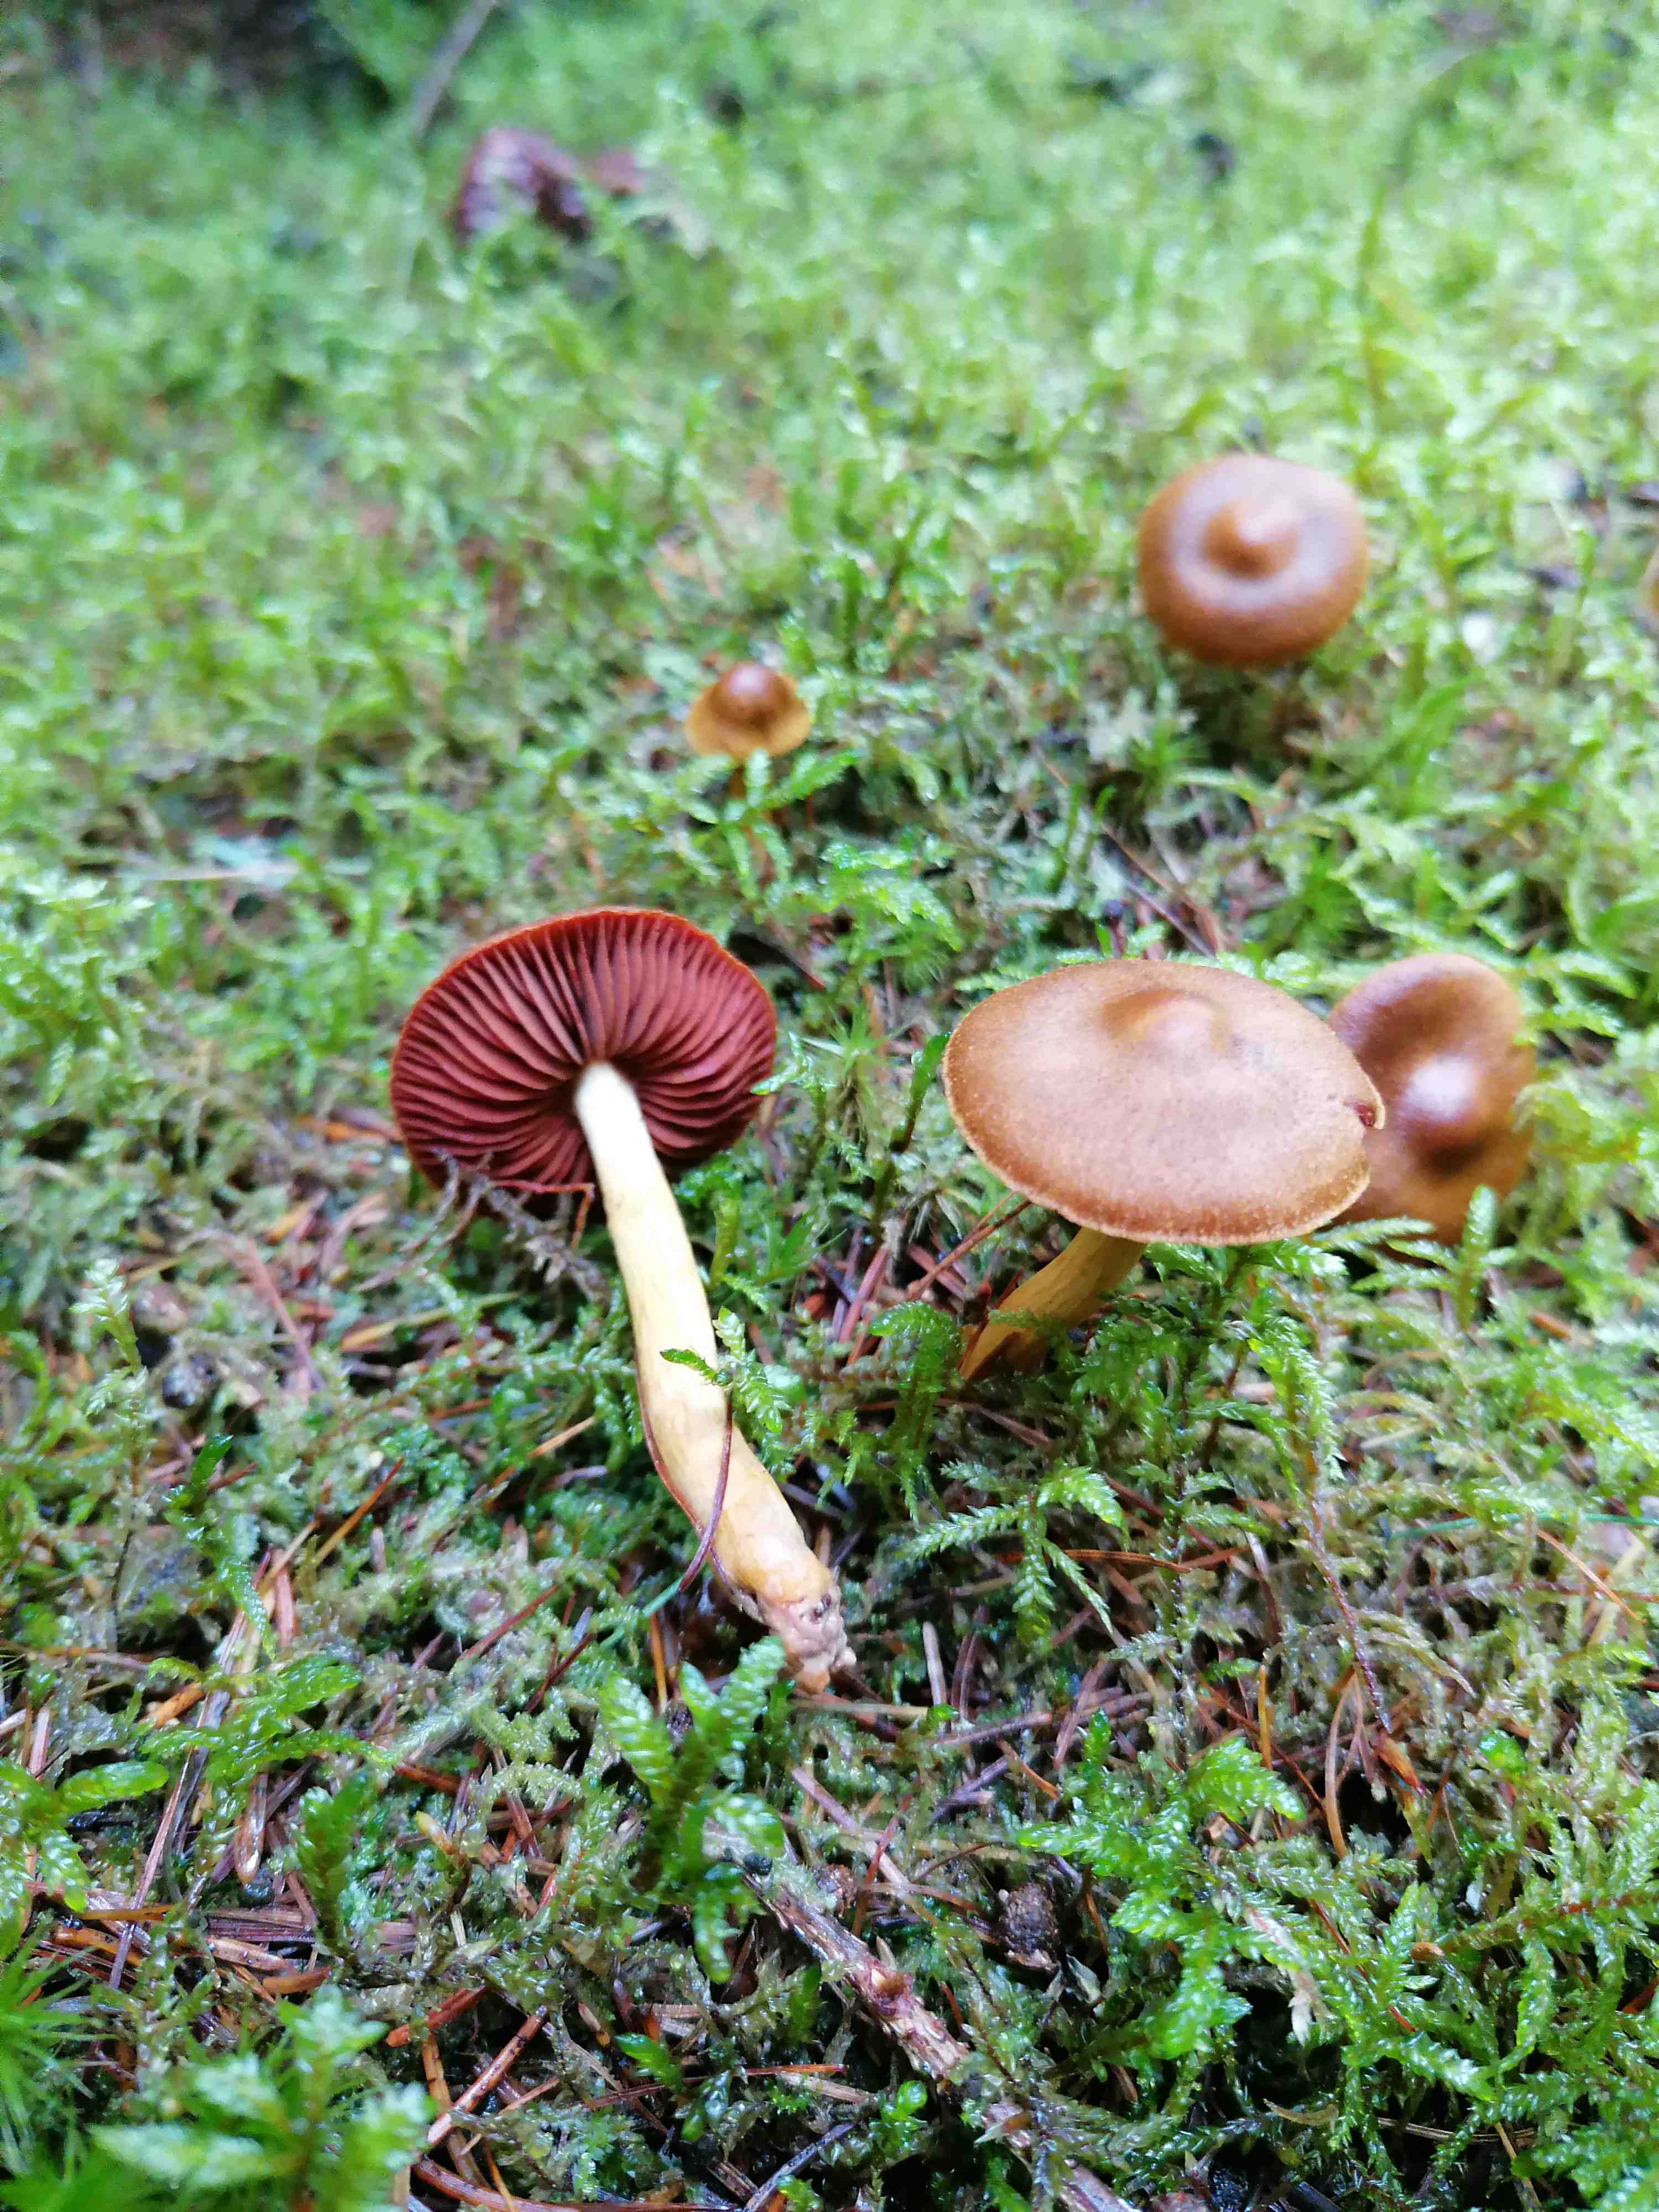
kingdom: Fungi
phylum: Basidiomycota
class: Agaricomycetes
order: Agaricales
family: Cortinariaceae
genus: Cortinarius
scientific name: Cortinarius
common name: cinnoberbladet slørhat
